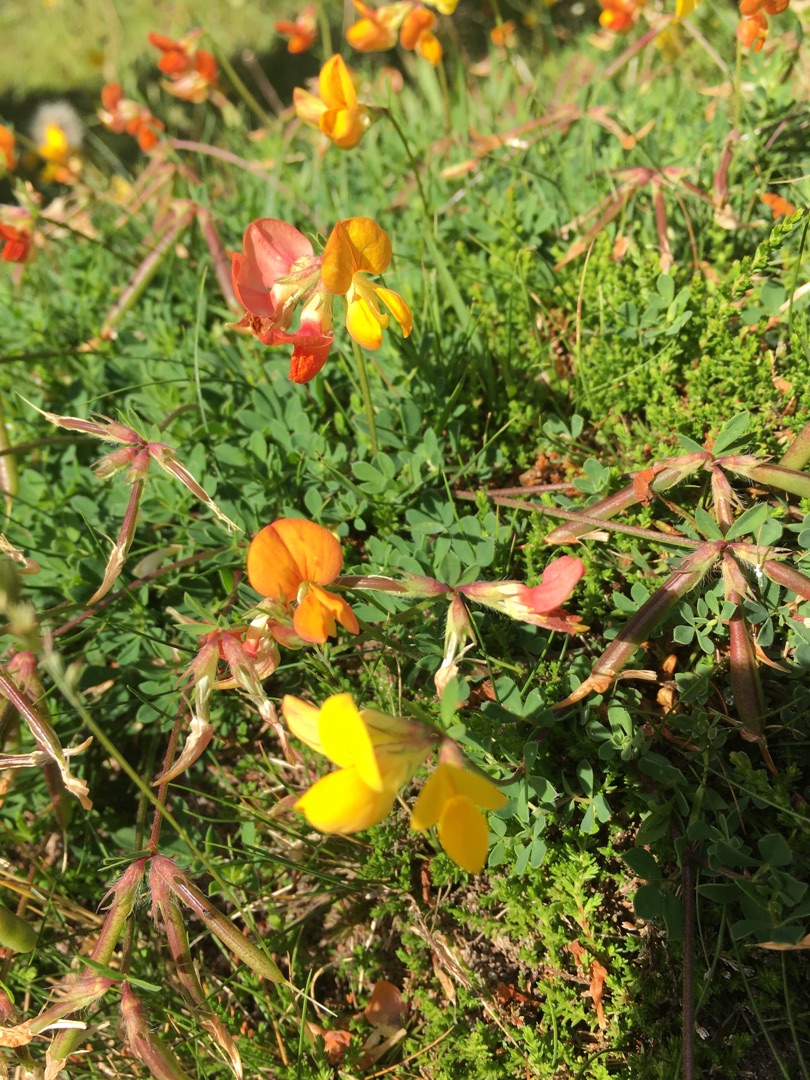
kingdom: Plantae
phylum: Tracheophyta
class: Magnoliopsida
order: Fabales
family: Fabaceae
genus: Lotus
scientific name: Lotus corniculatus
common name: Almindelig kællingetand
